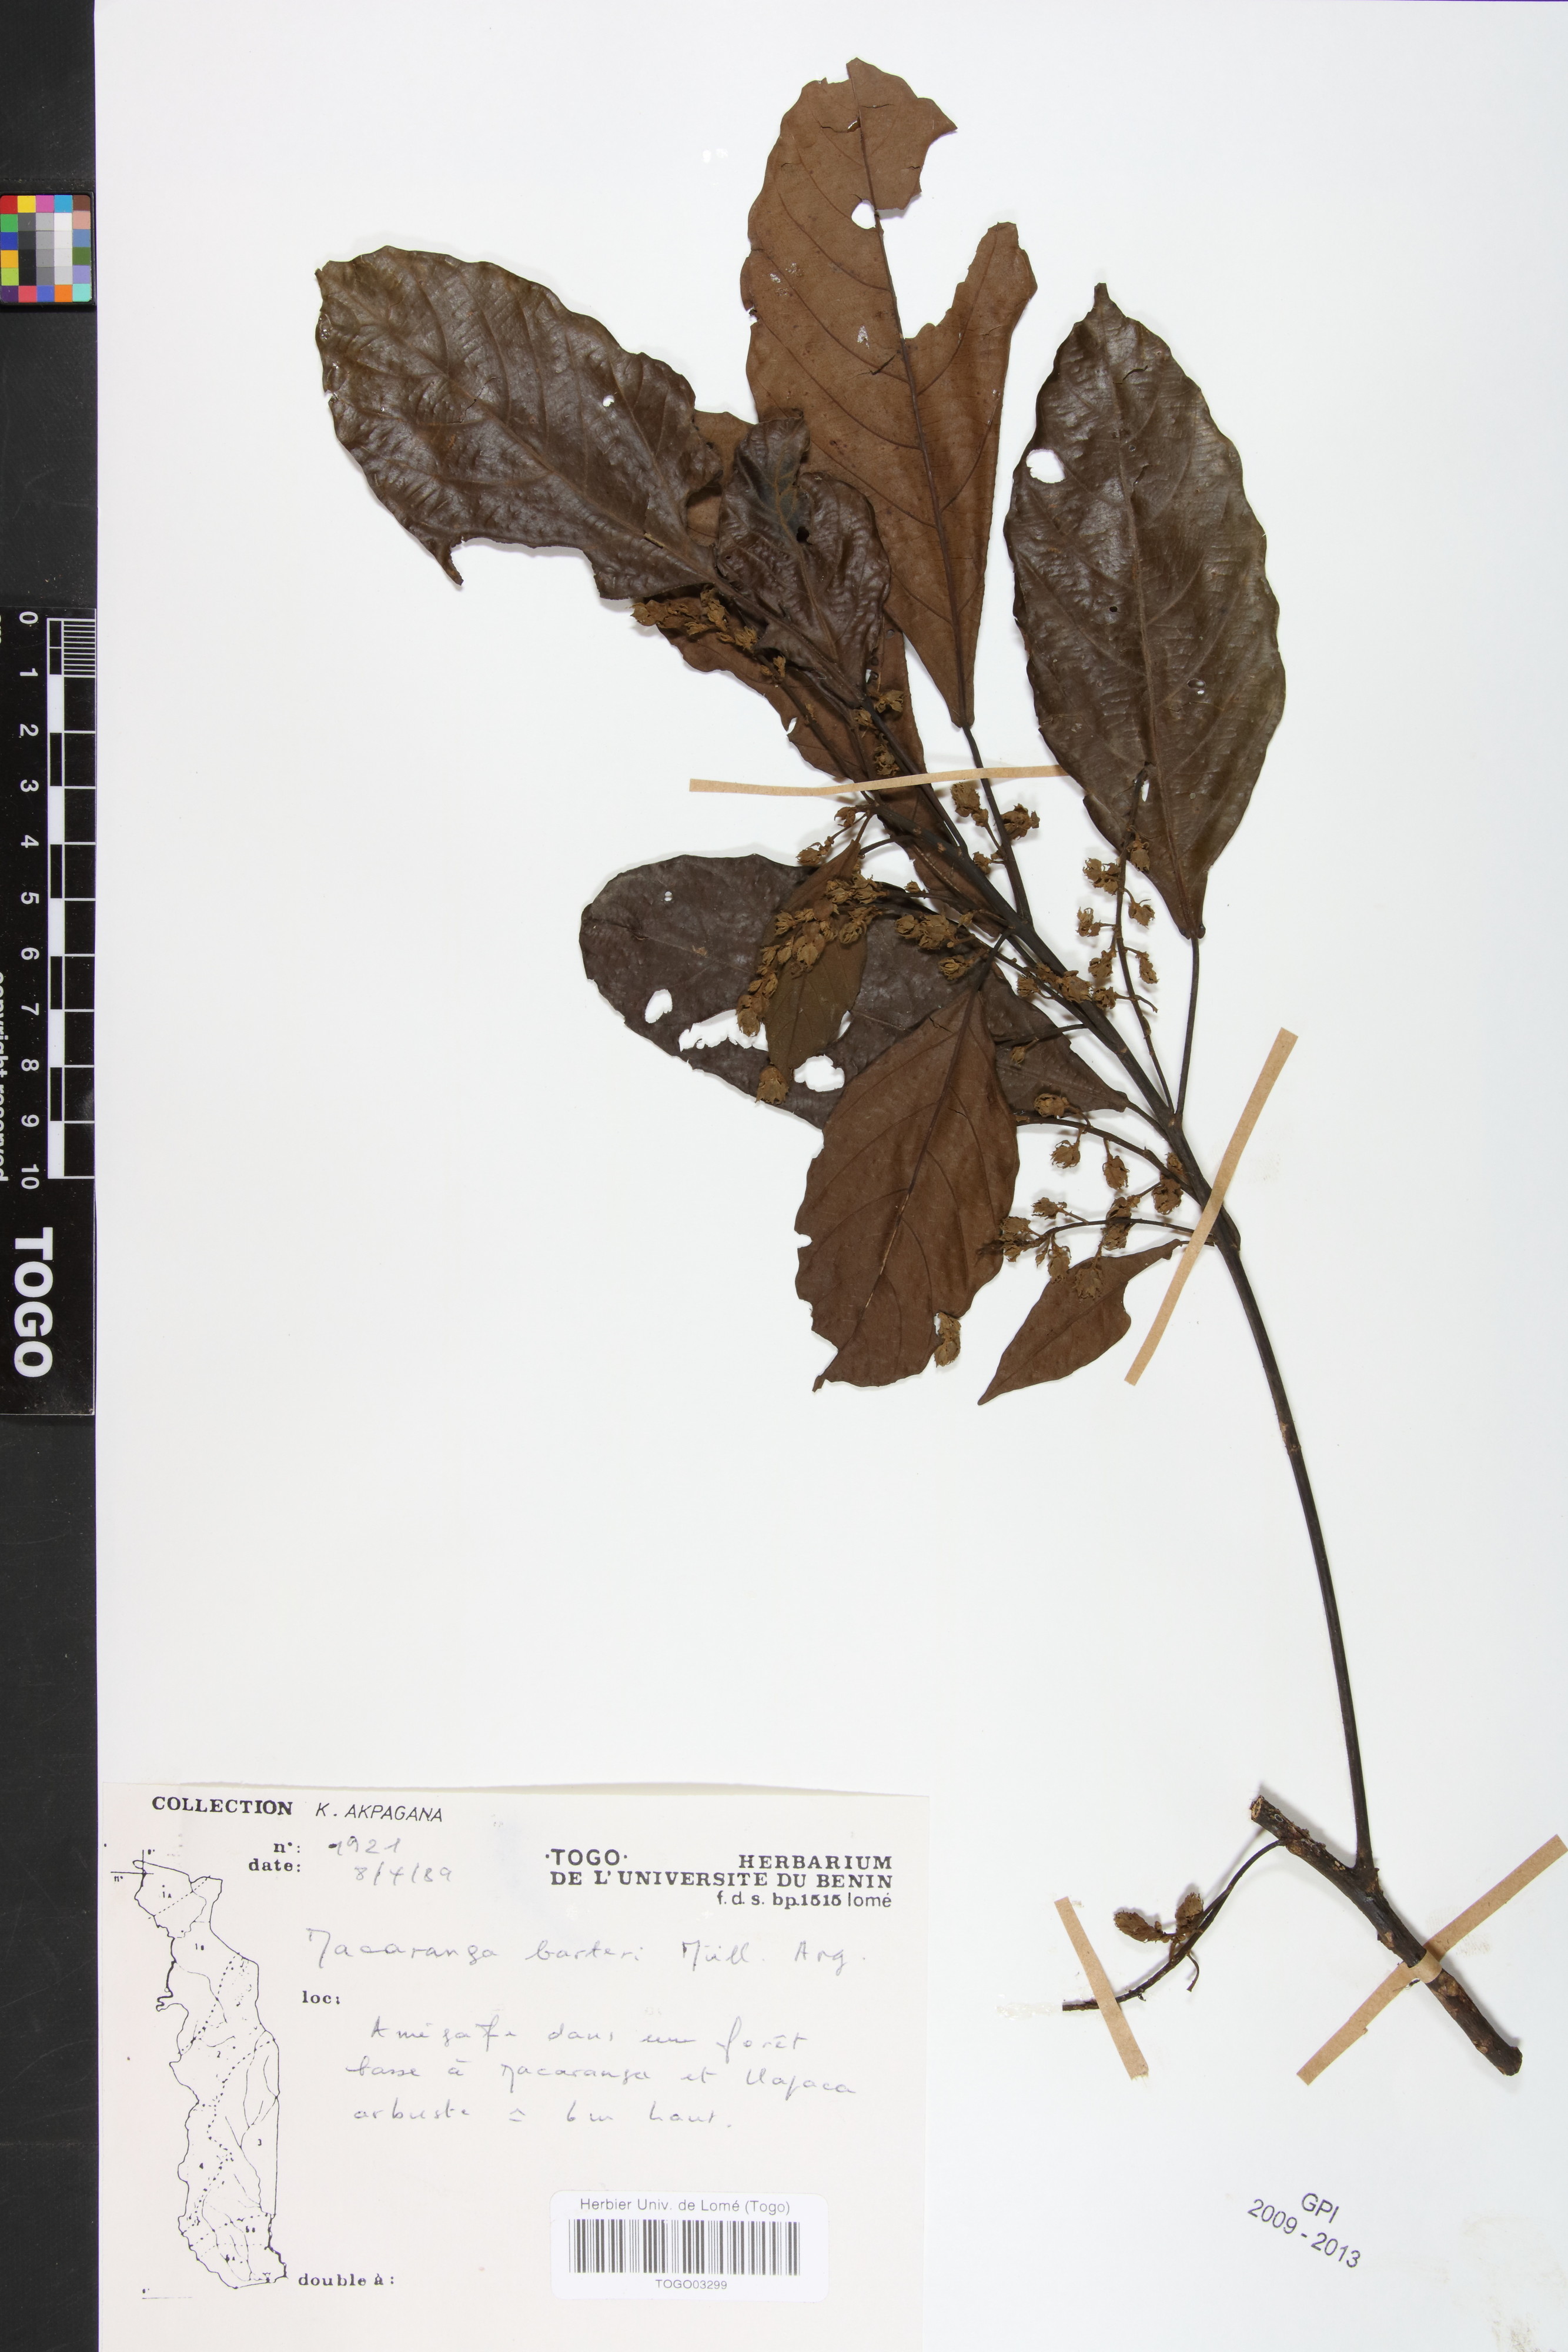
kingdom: Plantae
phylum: Tracheophyta
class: Magnoliopsida
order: Malpighiales
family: Euphorbiaceae
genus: Macaranga
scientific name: Macaranga barteri
